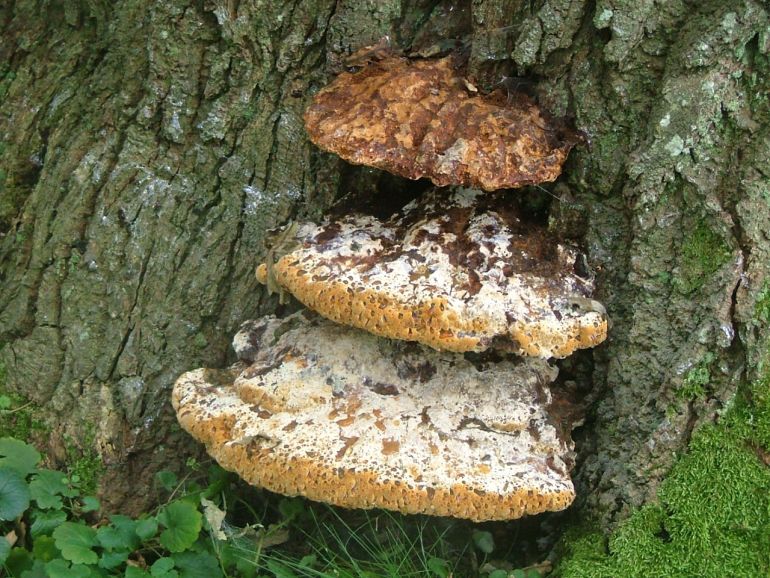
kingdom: Fungi
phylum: Basidiomycota
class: Agaricomycetes
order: Hymenochaetales
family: Hymenochaetaceae
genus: Pseudoinonotus
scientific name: Pseudoinonotus dryadeus
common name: ege-spejlporesvamp
